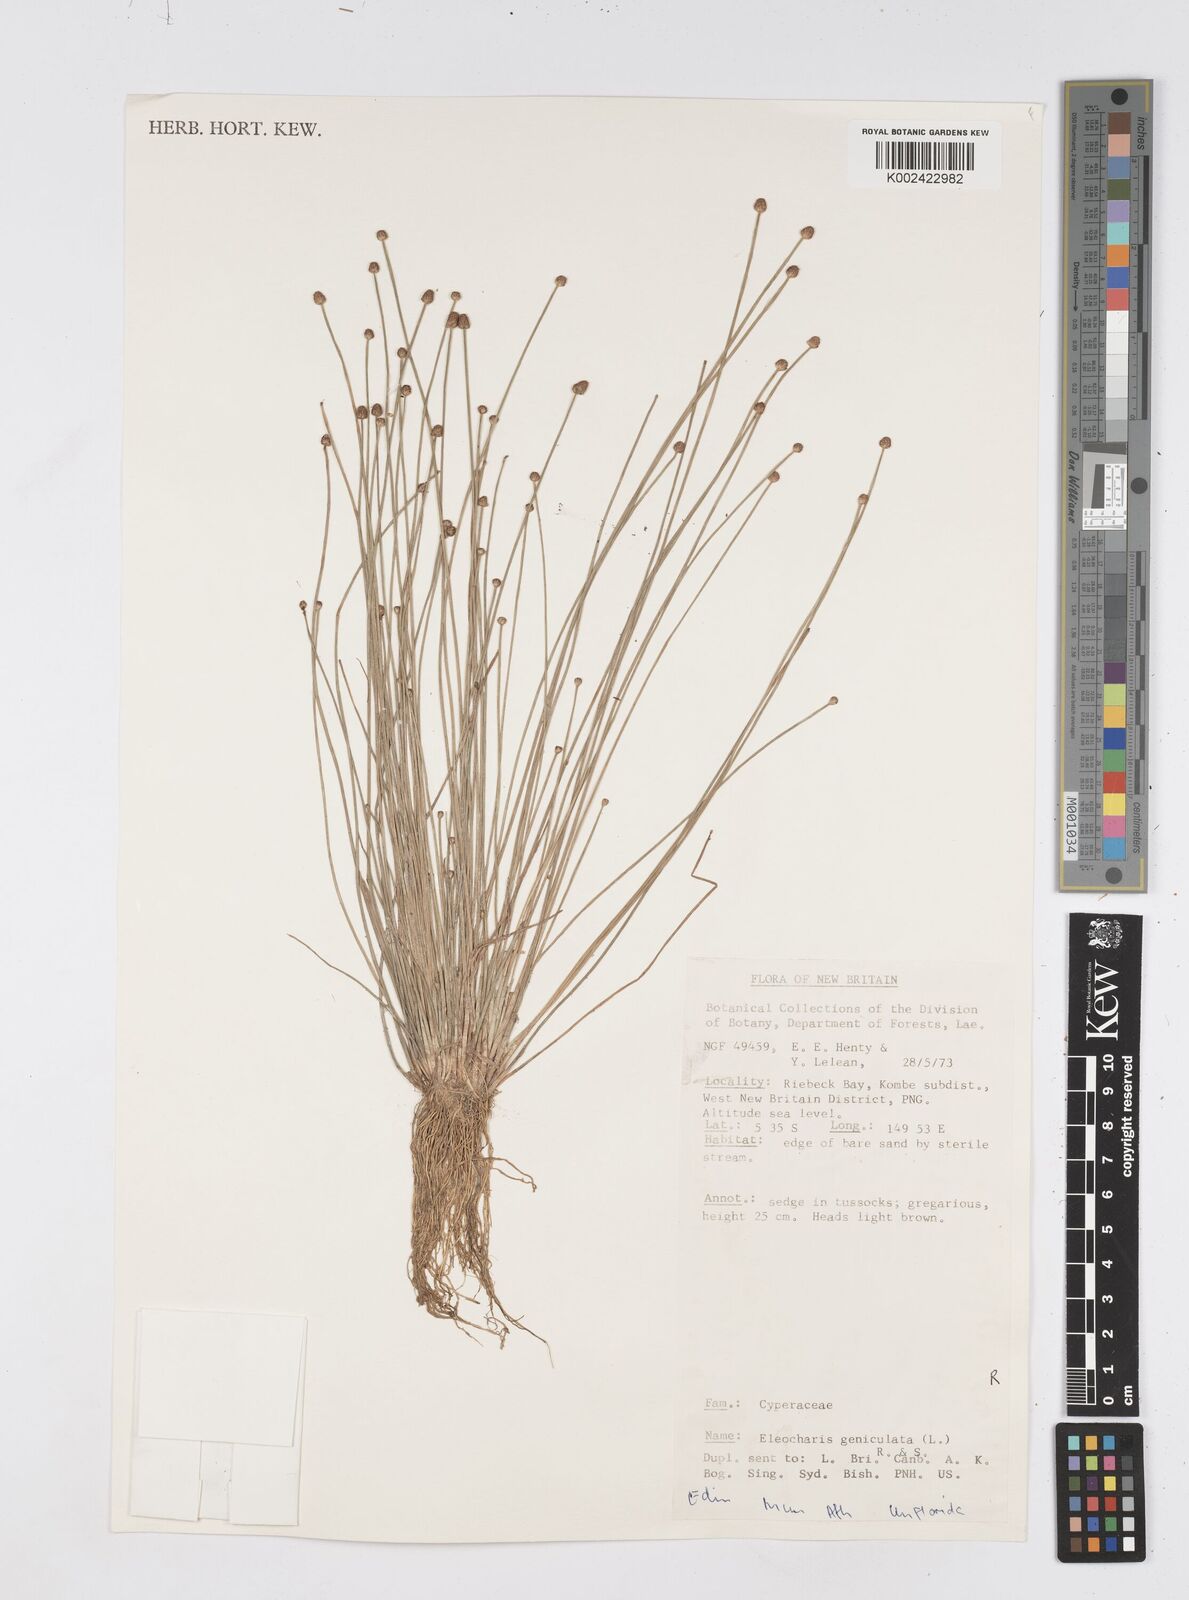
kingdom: Plantae
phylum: Tracheophyta
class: Liliopsida
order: Poales
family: Cyperaceae
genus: Eleocharis
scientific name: Eleocharis geniculata
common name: Canada spikesedge
